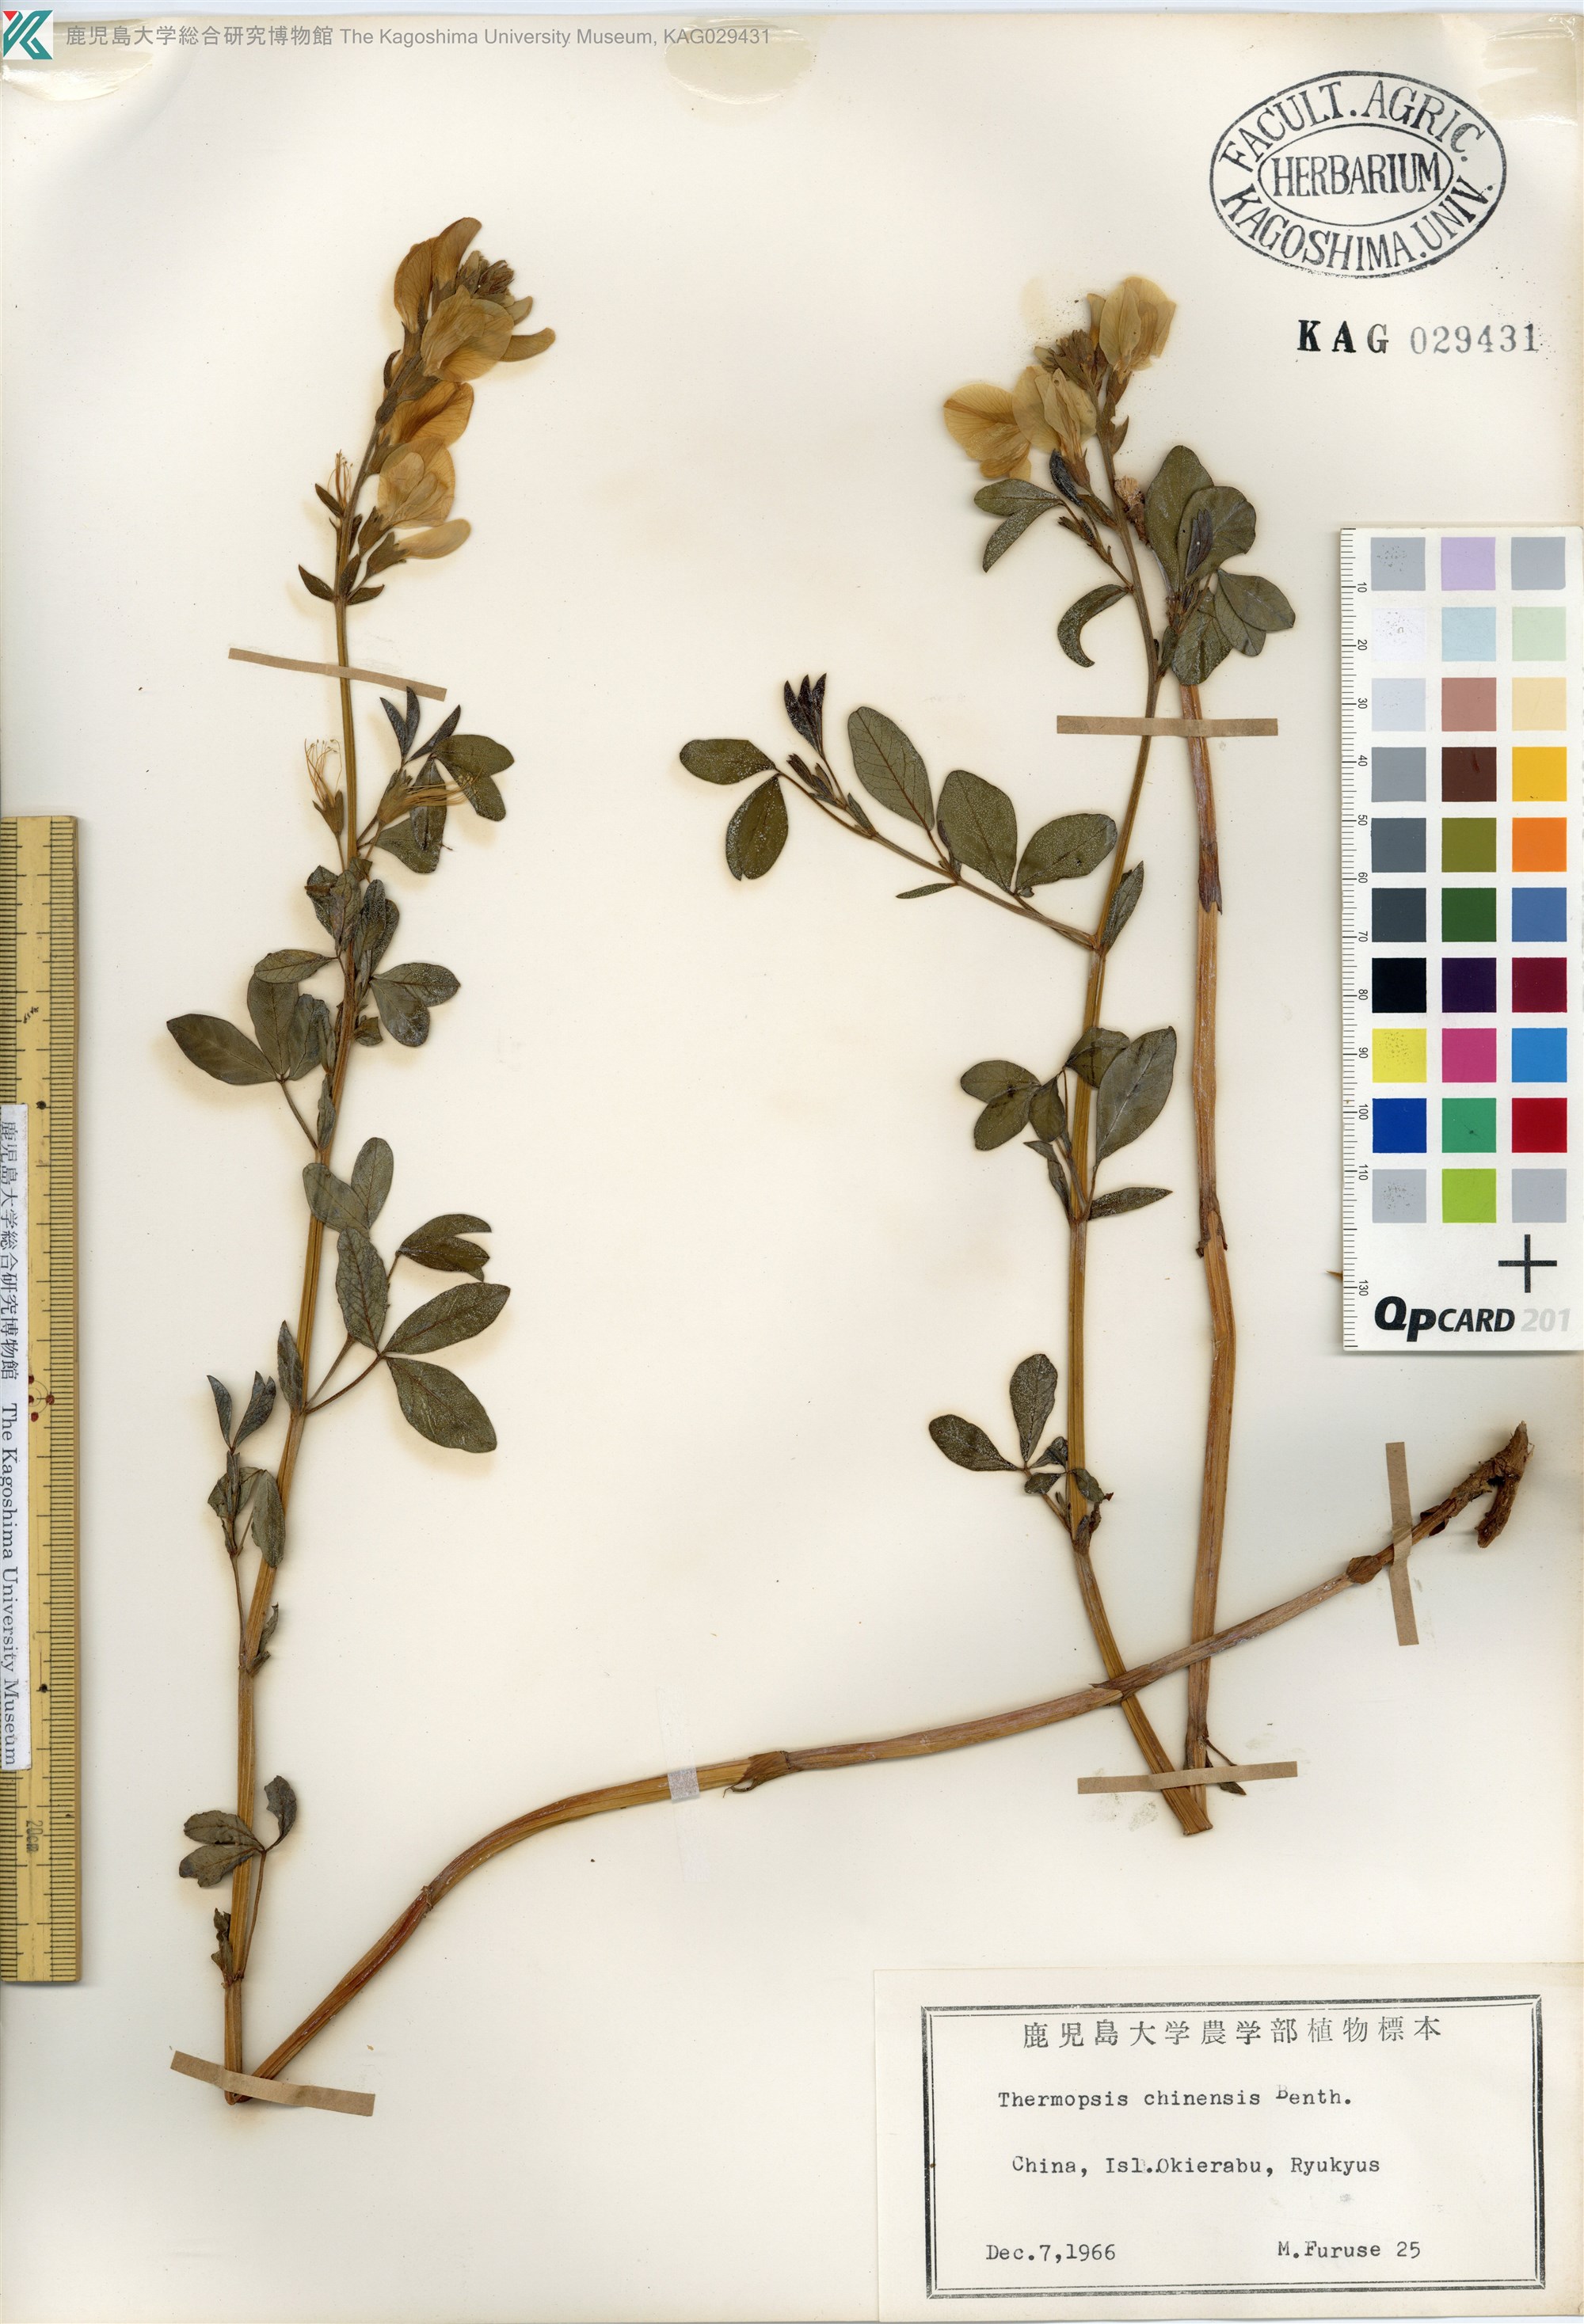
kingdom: Plantae
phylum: Tracheophyta
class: Magnoliopsida
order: Fabales
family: Fabaceae
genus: Thermopsis
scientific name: Thermopsis chinensis
